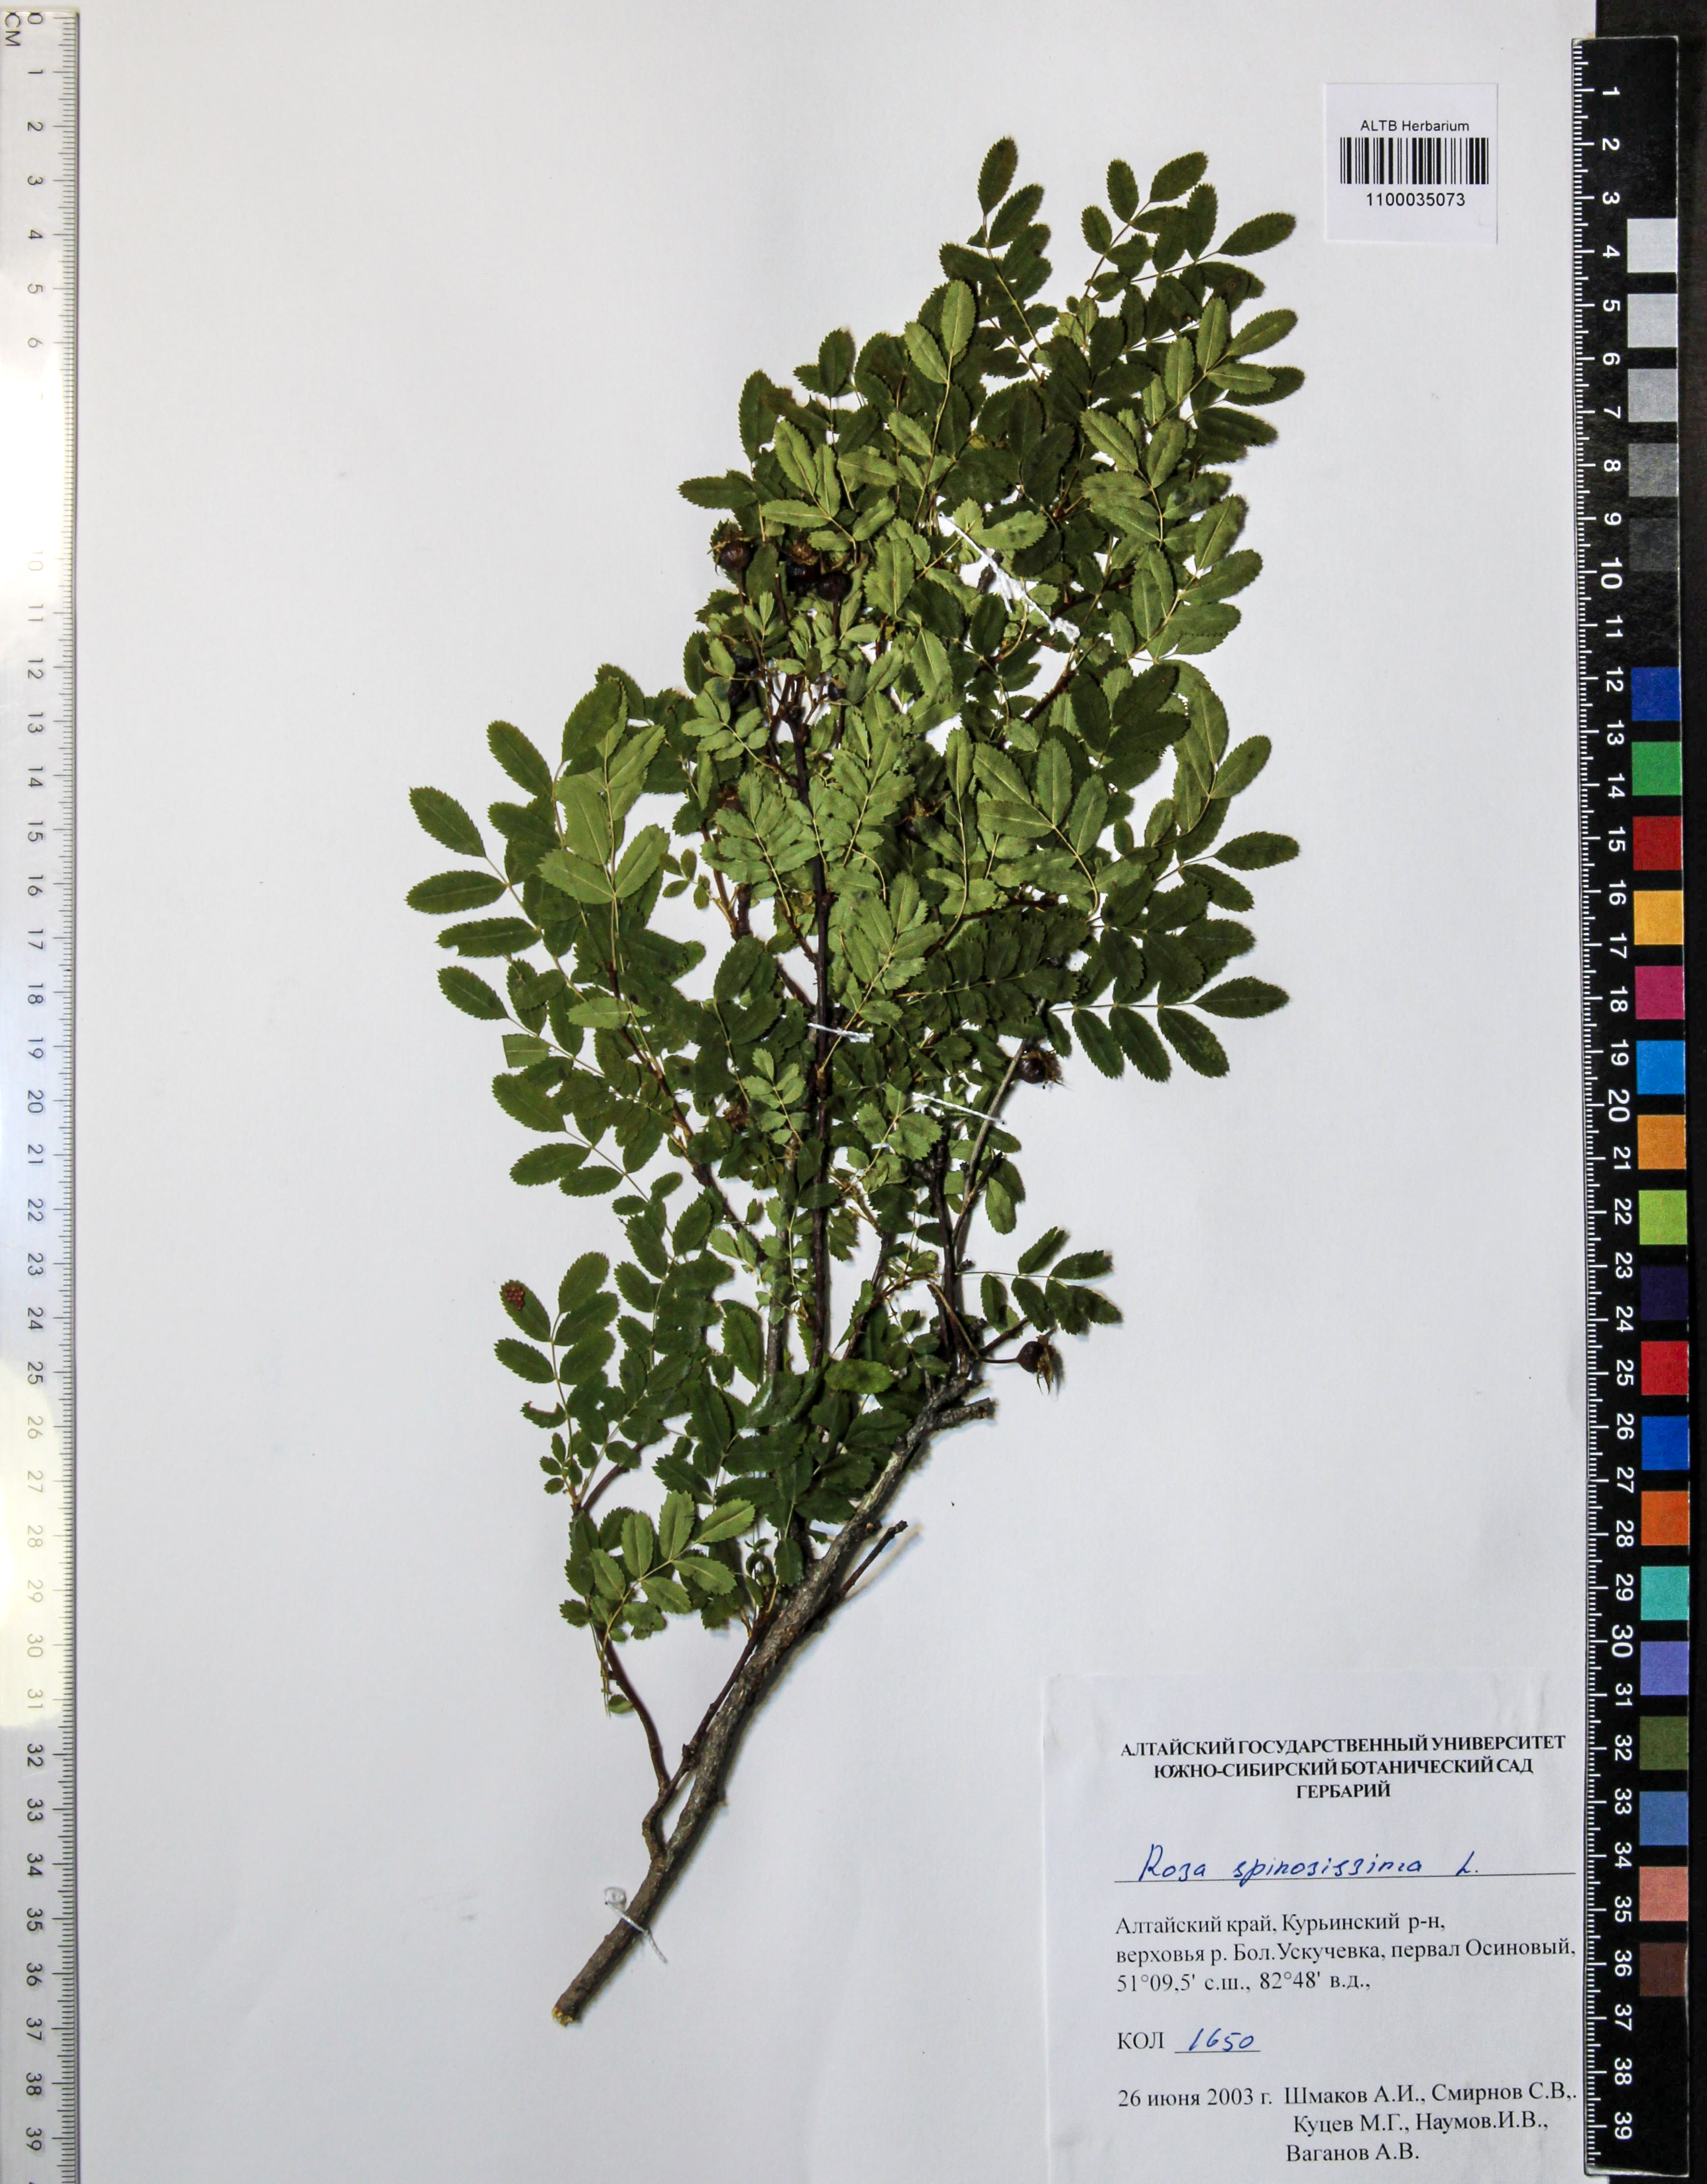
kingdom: Plantae
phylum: Tracheophyta
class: Magnoliopsida
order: Rosales
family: Rosaceae
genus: Rosa
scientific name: Rosa spinosissima
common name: Burnet rose
